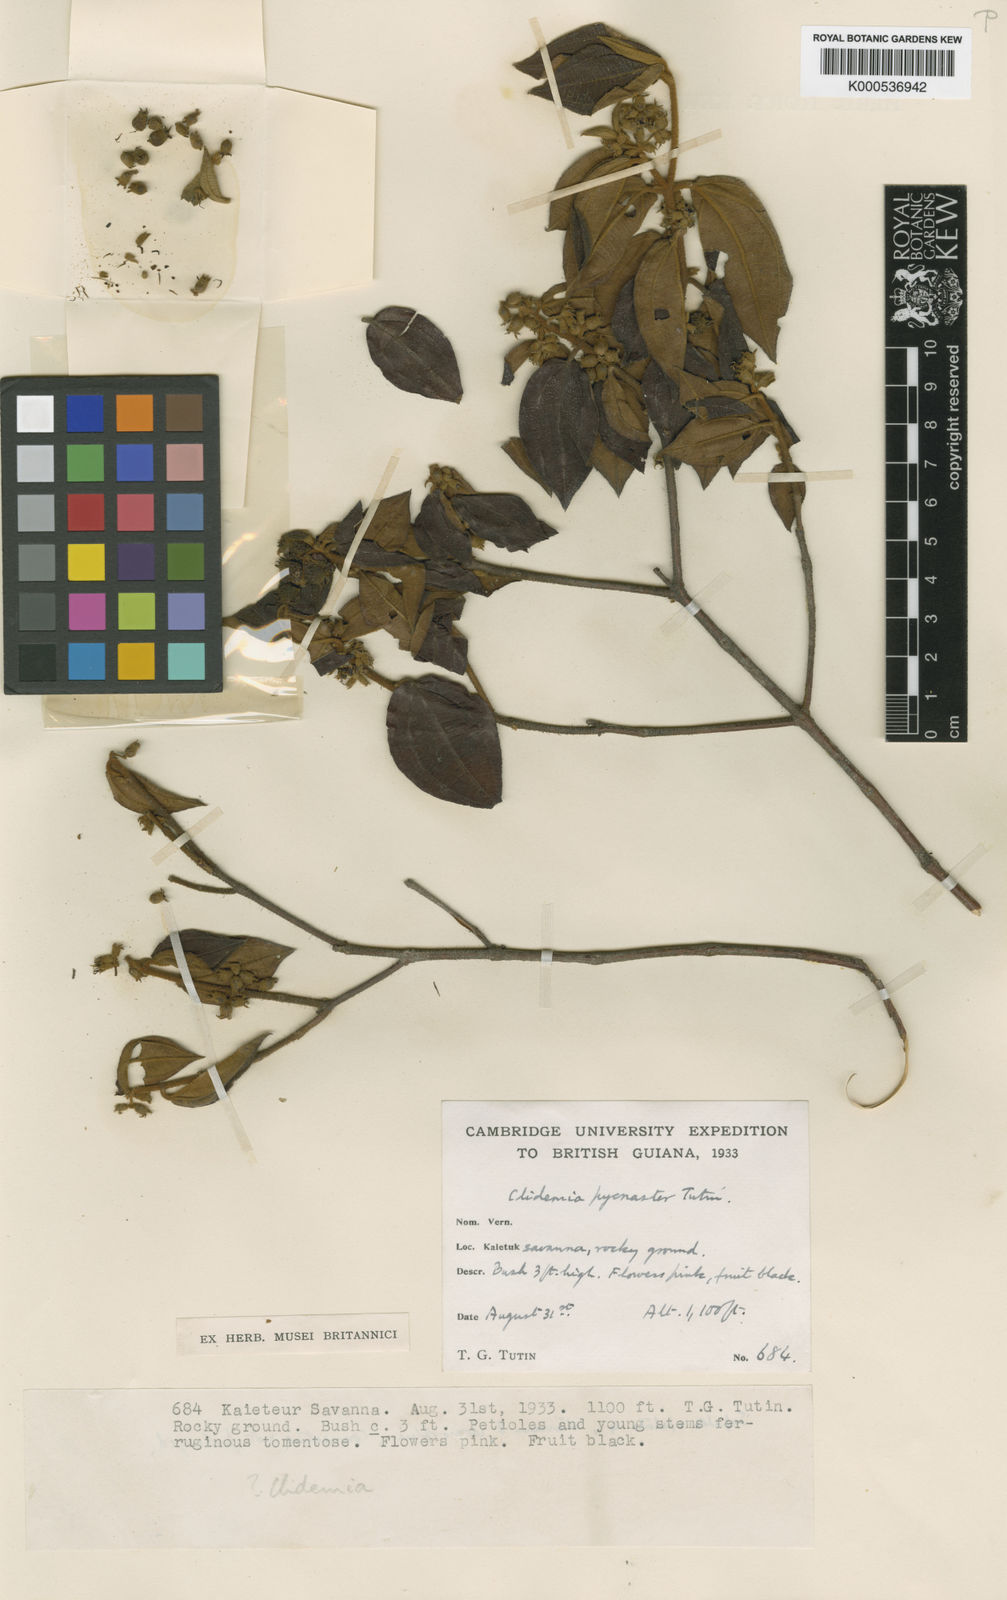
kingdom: Plantae
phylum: Tracheophyta
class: Magnoliopsida
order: Myrtales
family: Melastomataceae
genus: Miconia
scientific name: Miconia pycnaster
